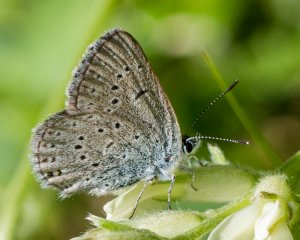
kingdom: Animalia
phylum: Arthropoda
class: Insecta
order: Lepidoptera
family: Lycaenidae
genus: Plebejus
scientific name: Plebejus saepiolus
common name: Greenish Blue
